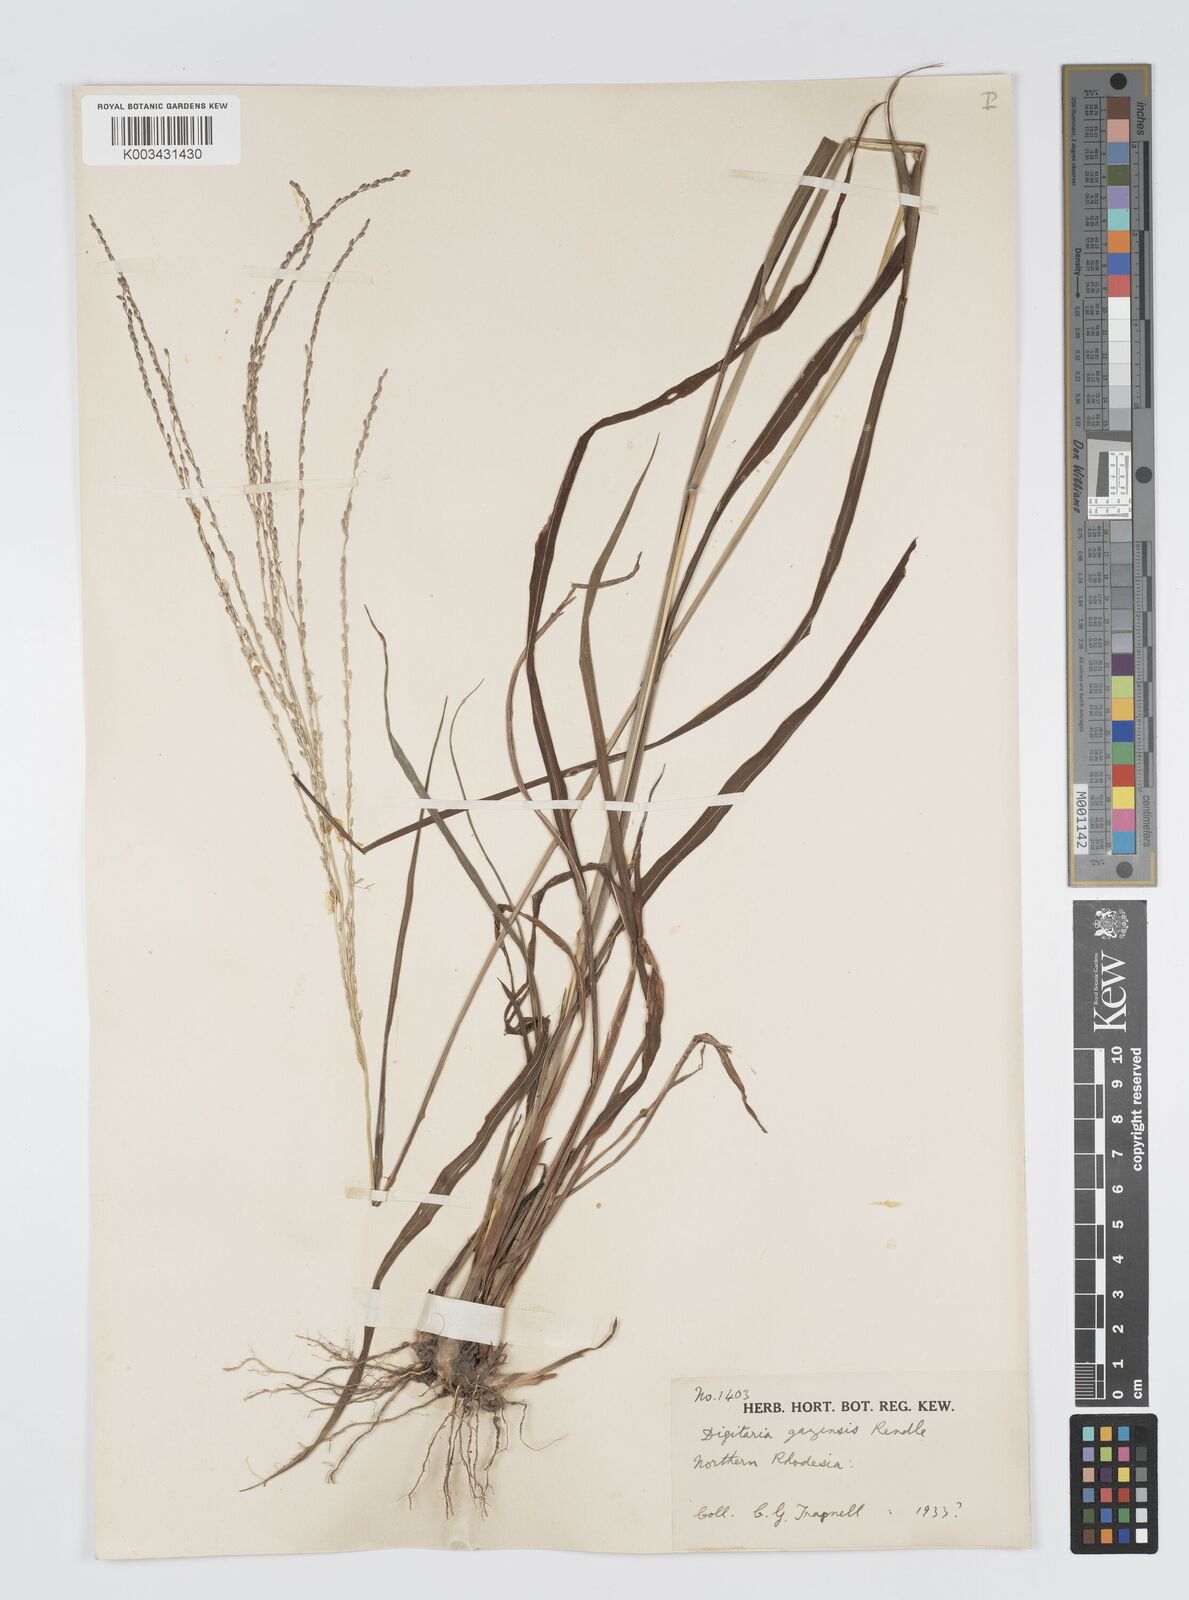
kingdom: Plantae
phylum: Tracheophyta
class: Liliopsida
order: Poales
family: Poaceae
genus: Digitaria
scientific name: Digitaria gazensis
